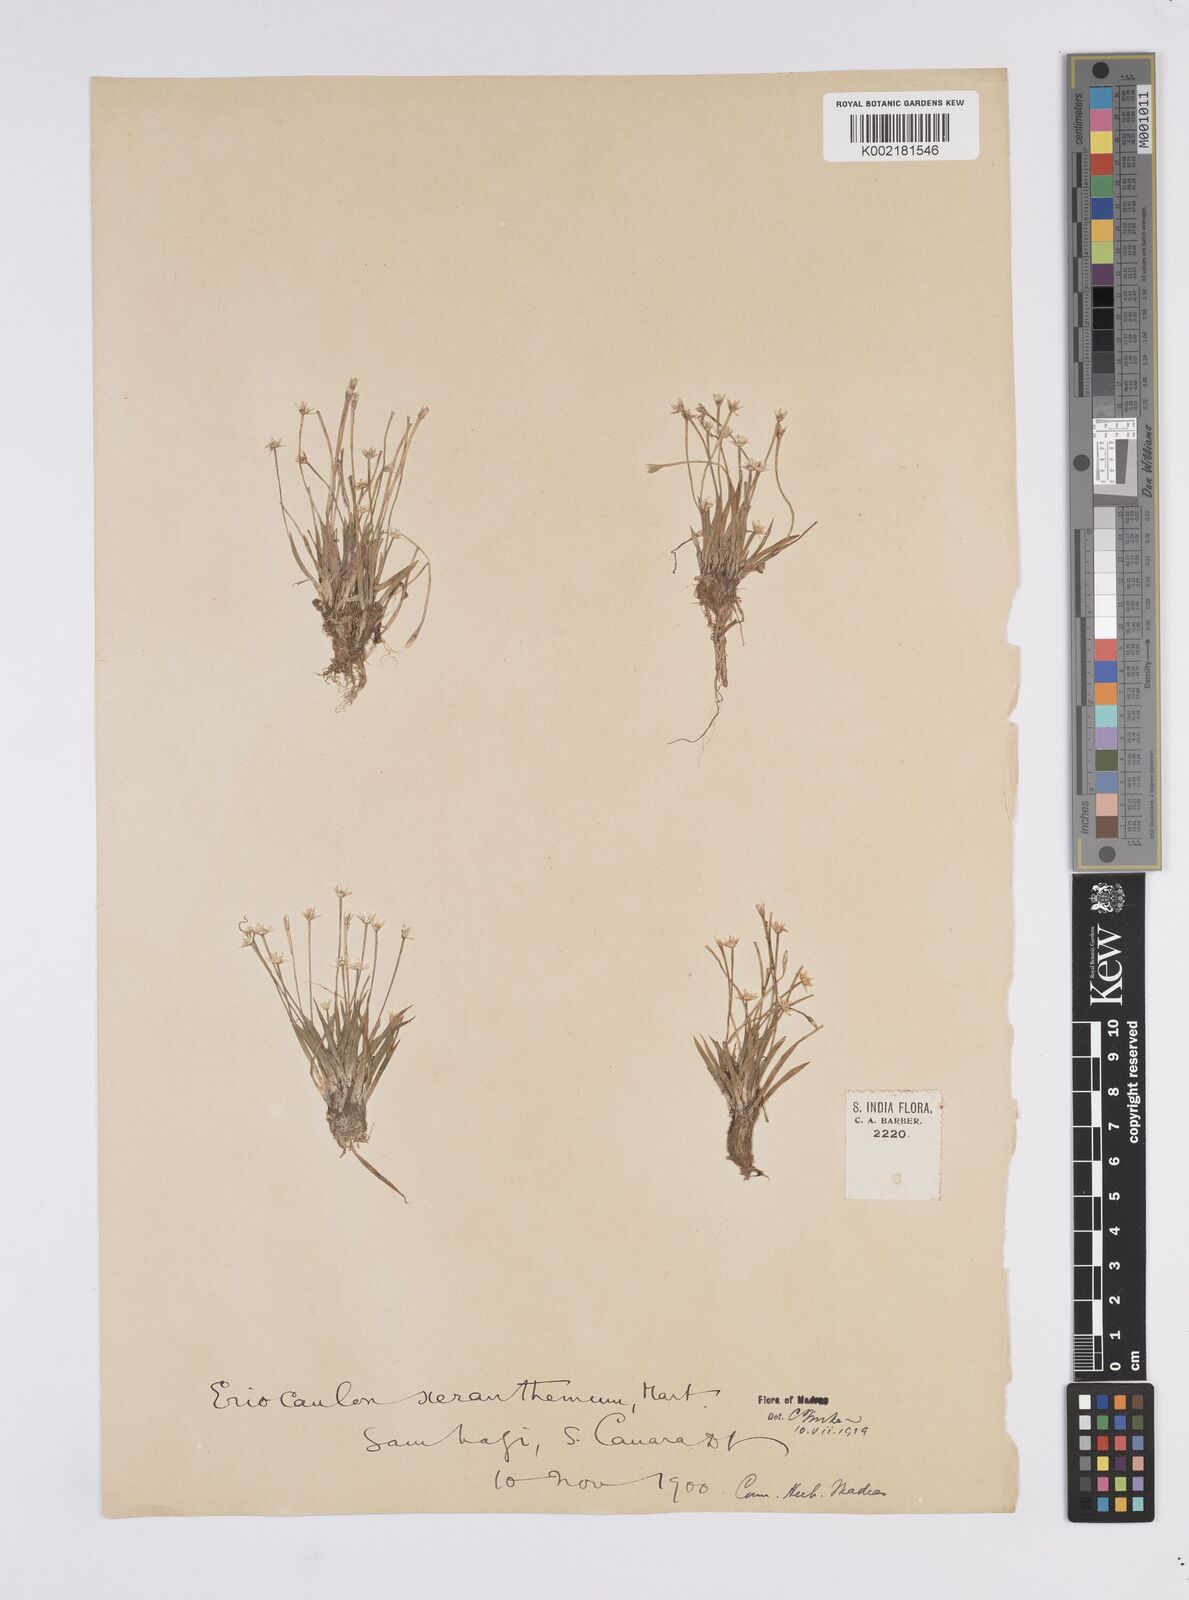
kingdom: Plantae
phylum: Tracheophyta
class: Liliopsida
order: Poales
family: Eriocaulaceae
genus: Eriocaulon
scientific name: Eriocaulon xeranthemum
